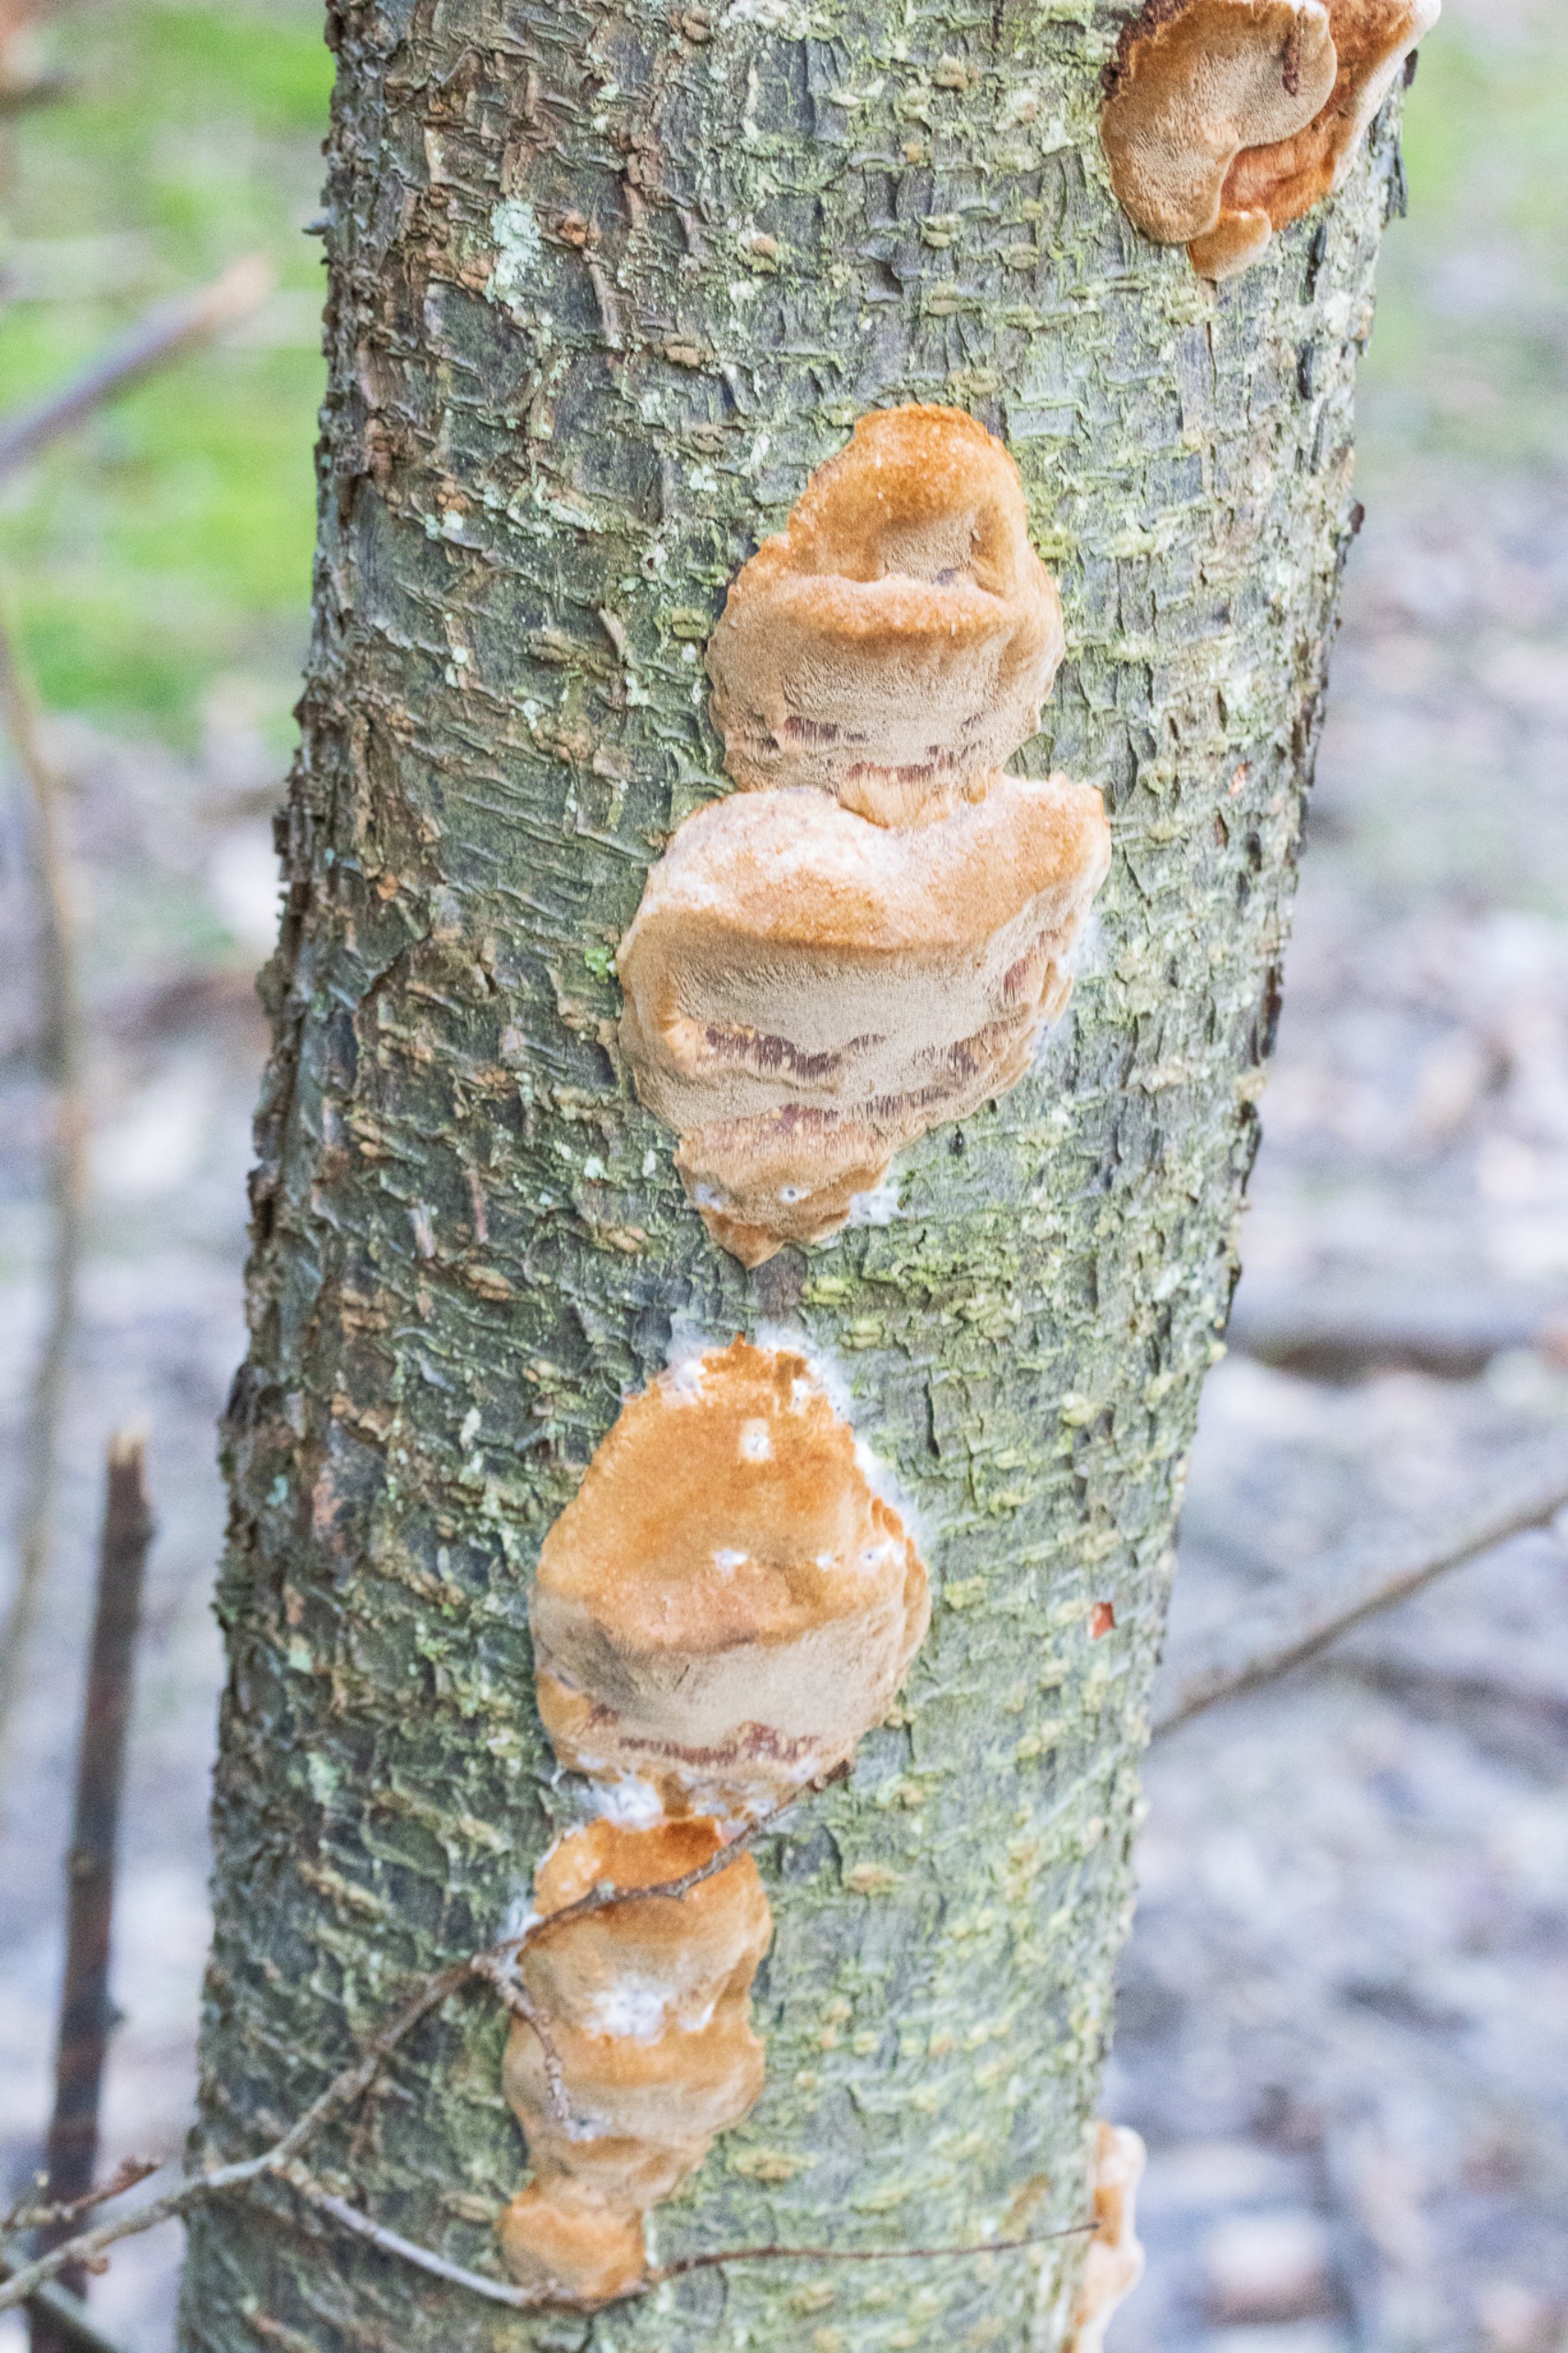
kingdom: Fungi
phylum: Basidiomycota
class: Agaricomycetes
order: Hymenochaetales
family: Hymenochaetaceae
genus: Phellinus
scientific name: Phellinus pomaceus
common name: Blomme-ildporesvamp
